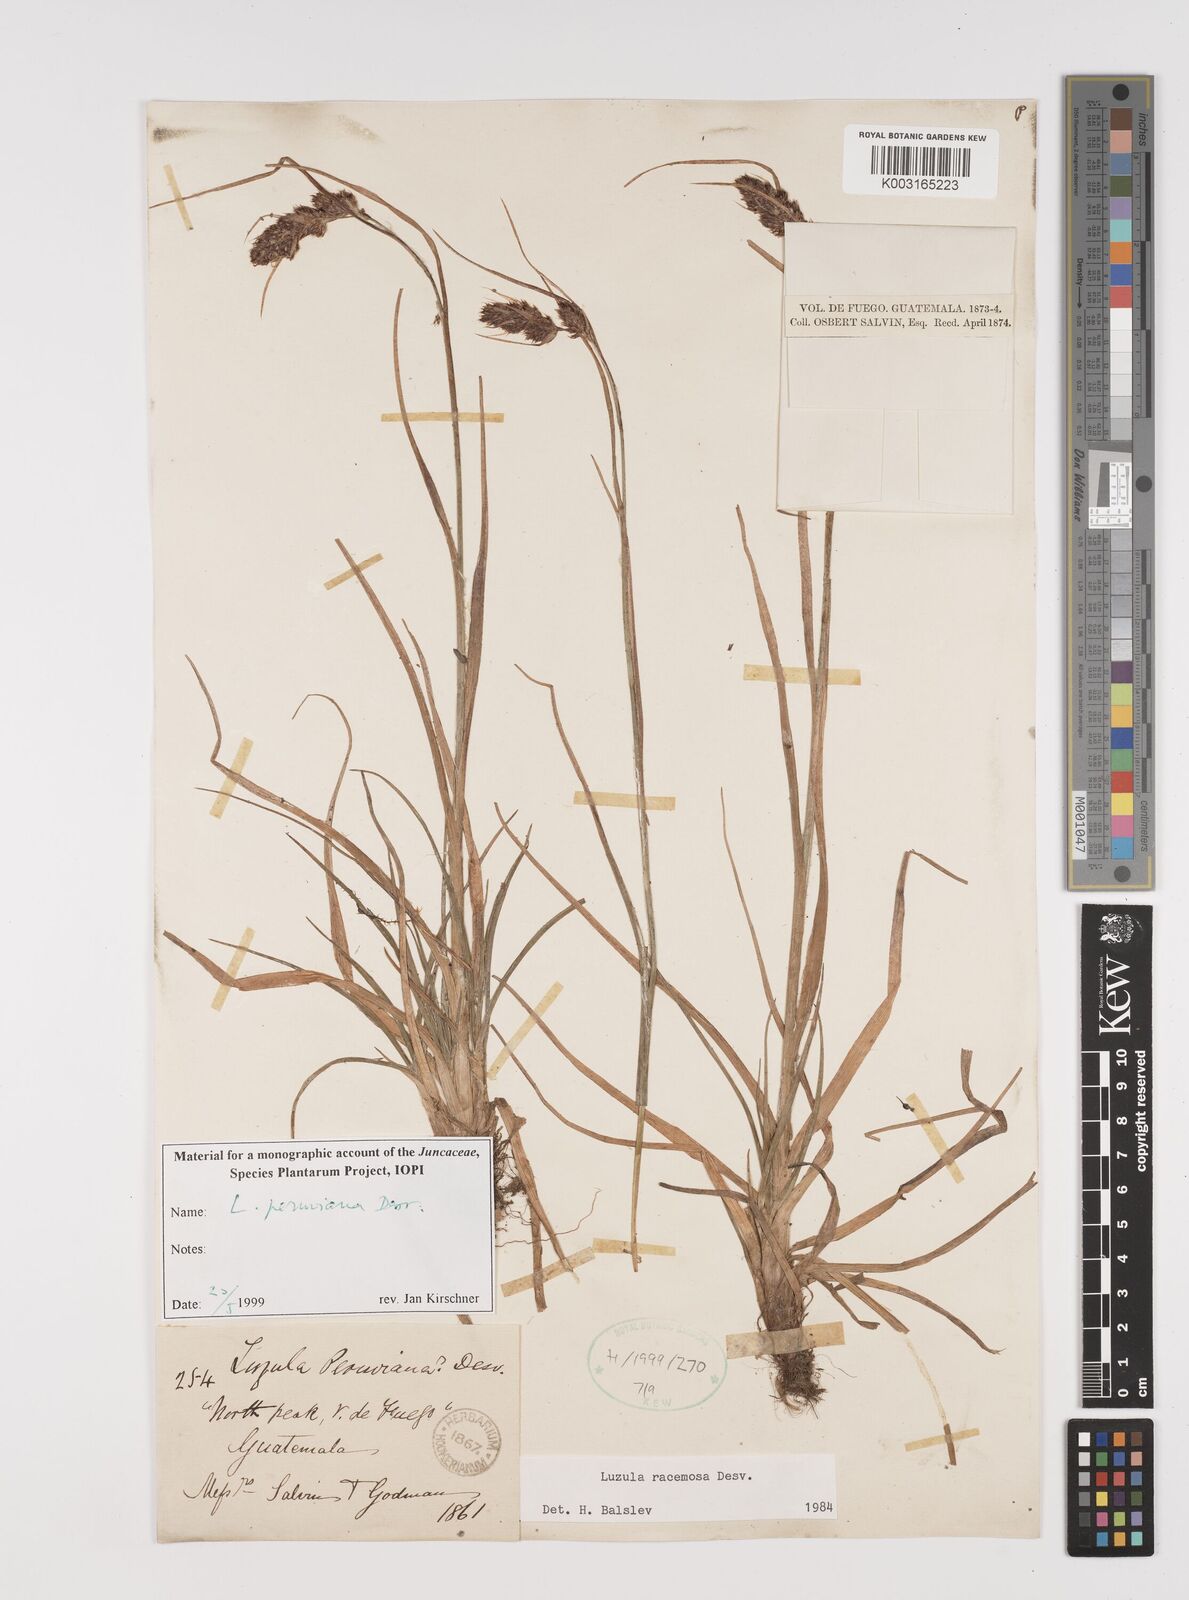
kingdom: Plantae
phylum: Tracheophyta
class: Liliopsida
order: Poales
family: Juncaceae
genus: Luzula
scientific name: Luzula peruviana
